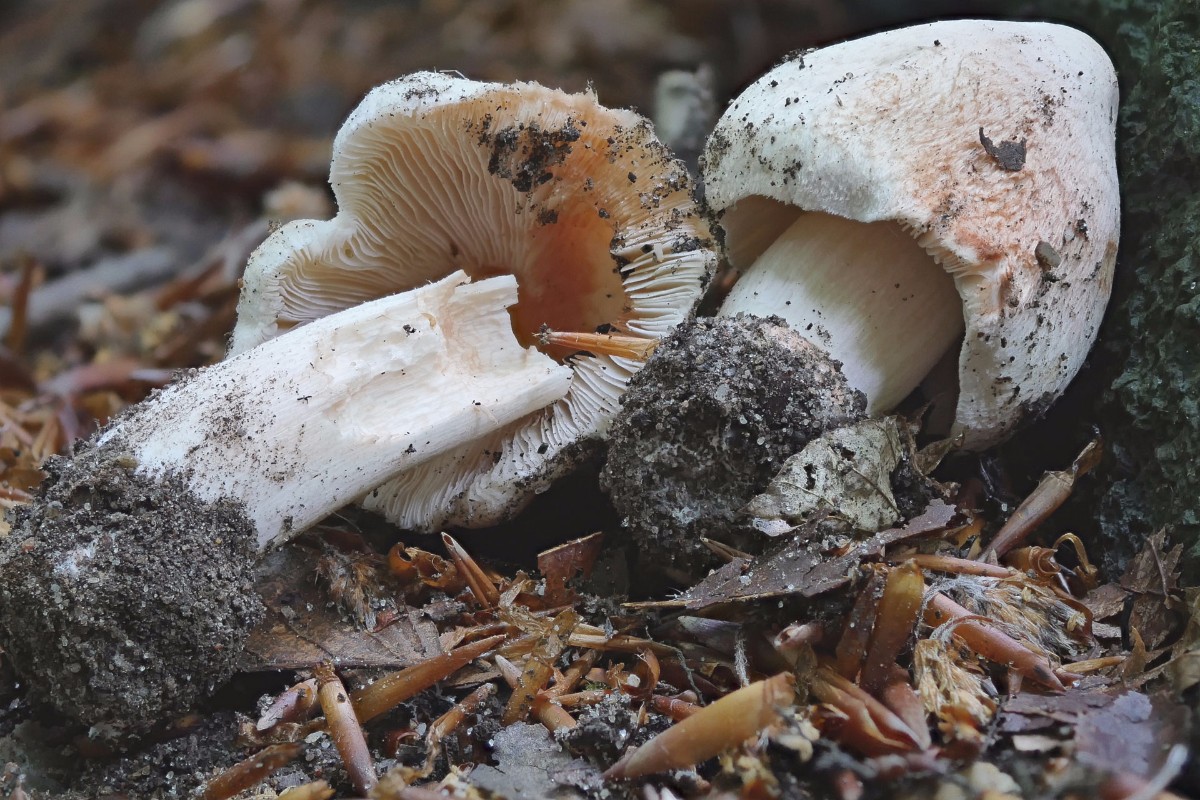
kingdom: Fungi
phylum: Basidiomycota
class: Agaricomycetes
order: Agaricales
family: Inocybaceae
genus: Inosperma
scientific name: Inosperma erubescens
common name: giftig trævlhat
